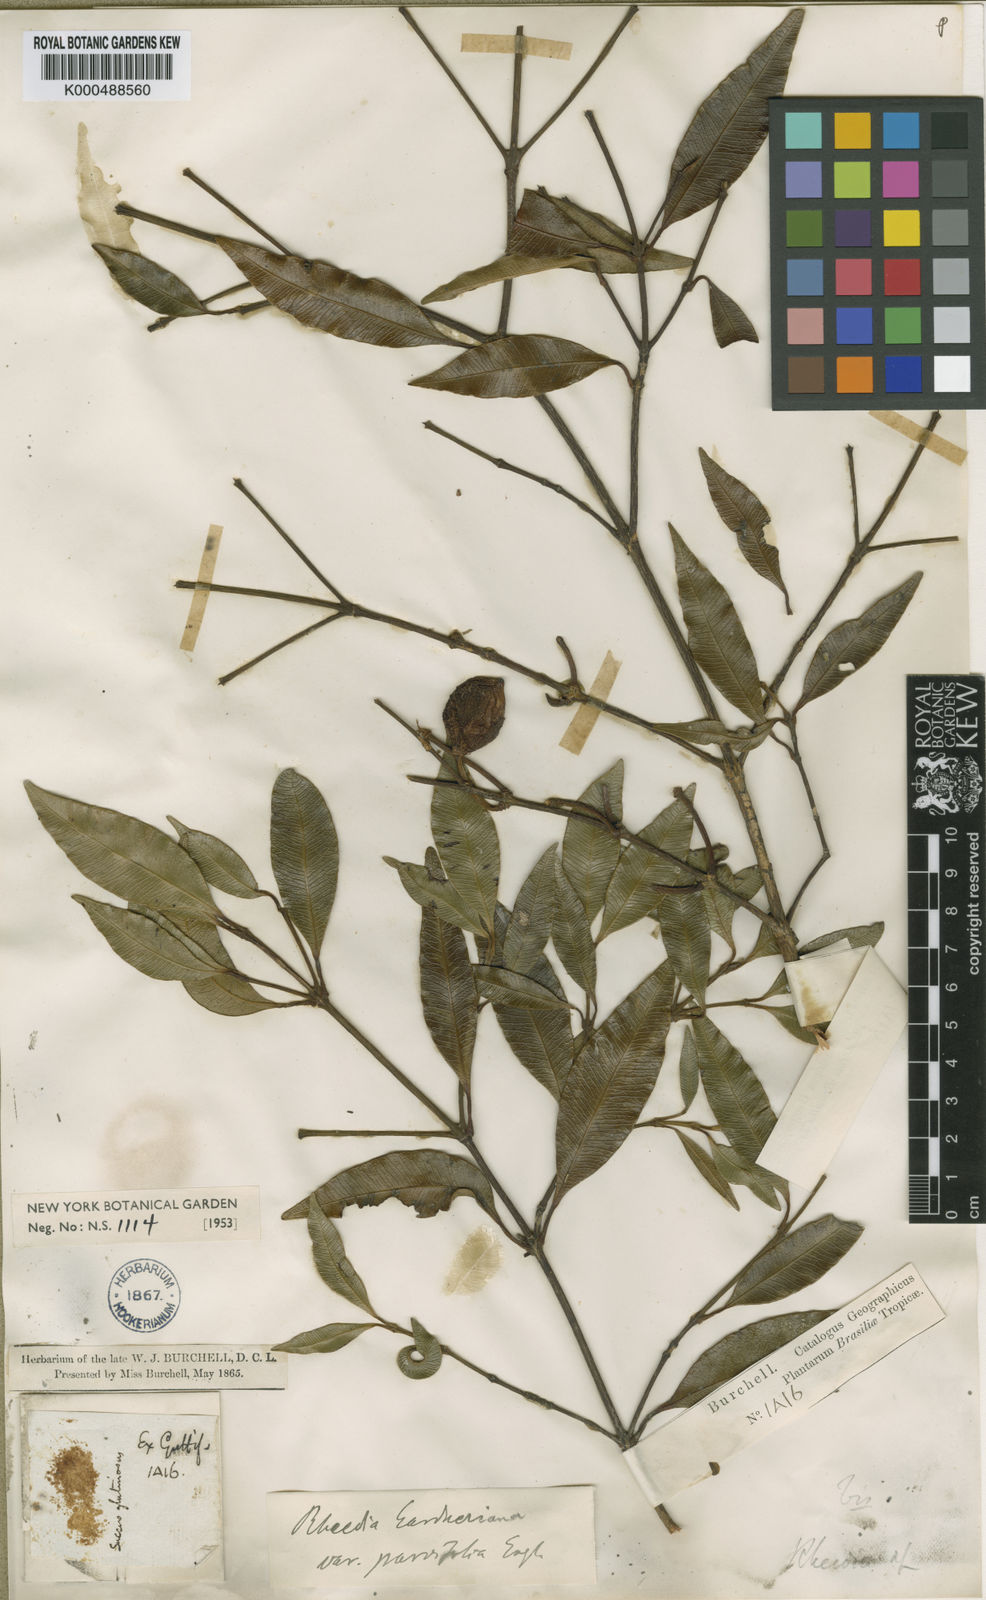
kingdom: Plantae
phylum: Tracheophyta
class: Magnoliopsida
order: Malpighiales
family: Clusiaceae
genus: Garcinia
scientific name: Garcinia gardneriana
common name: Achacha
